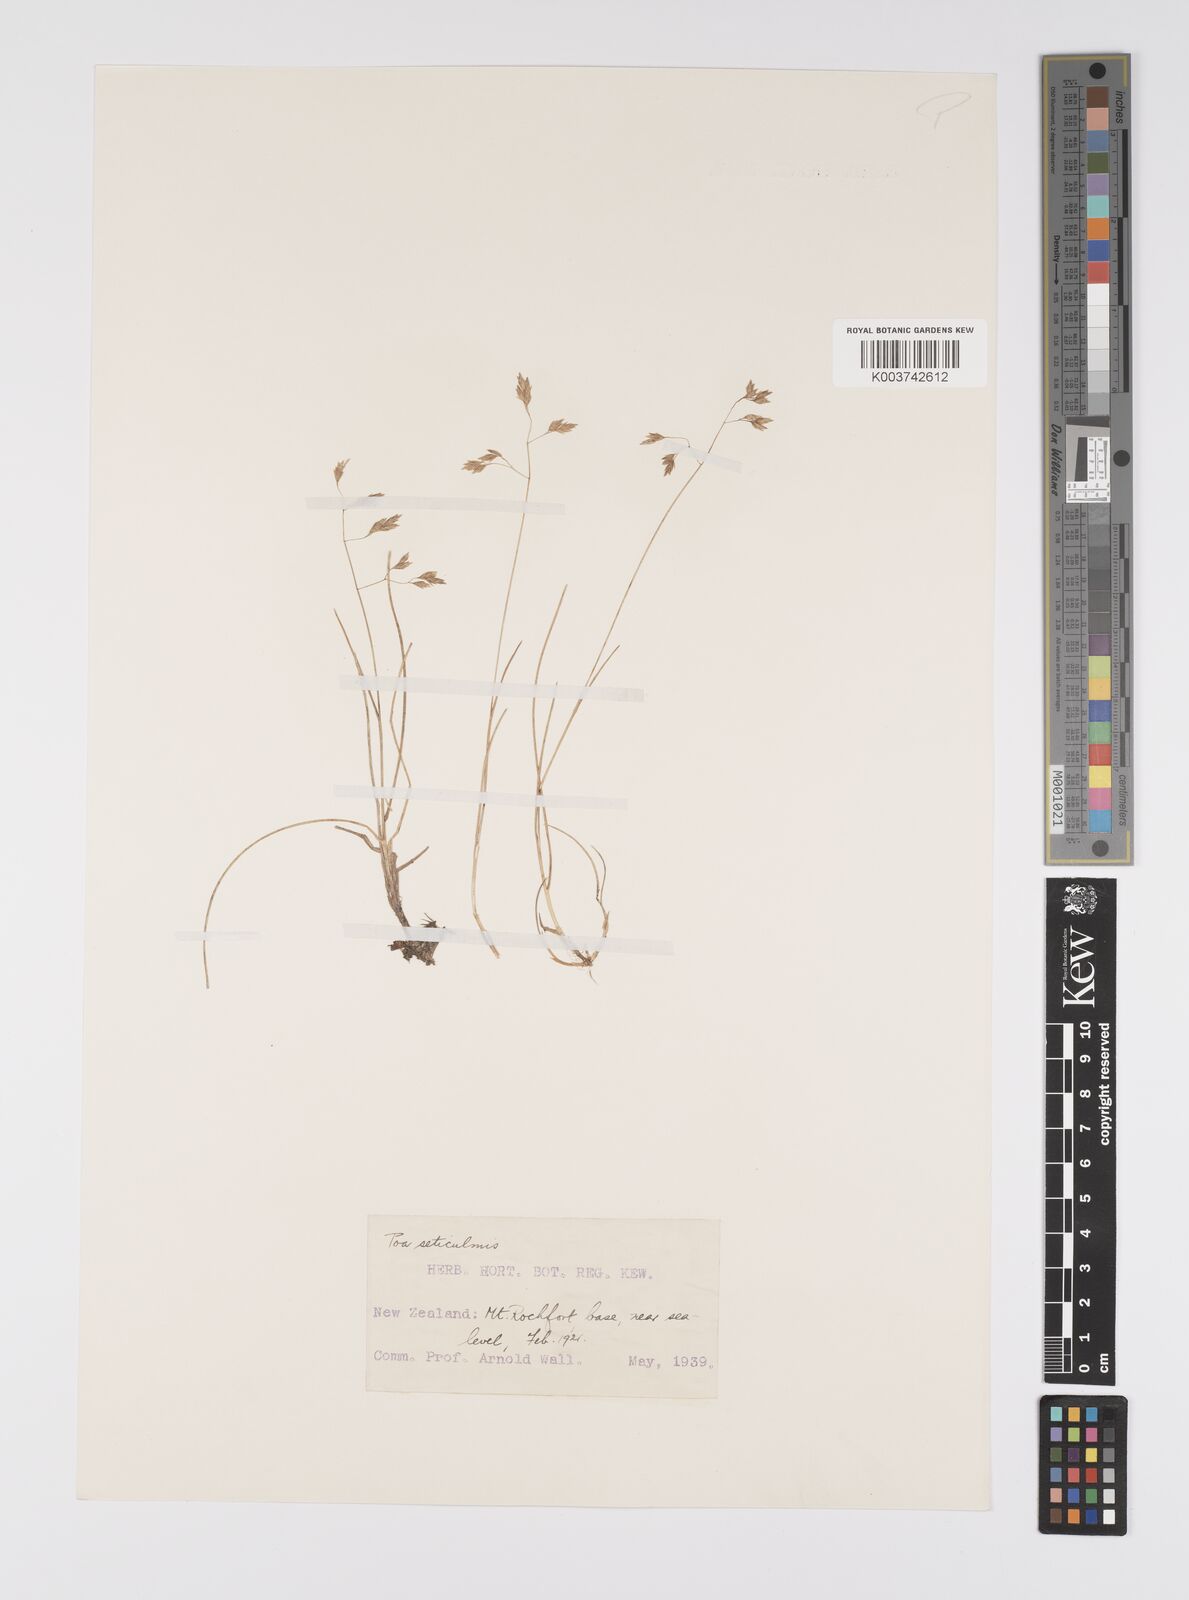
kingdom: Plantae
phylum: Tracheophyta
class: Liliopsida
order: Poales
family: Poaceae
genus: Poa
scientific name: Poa pusilla
